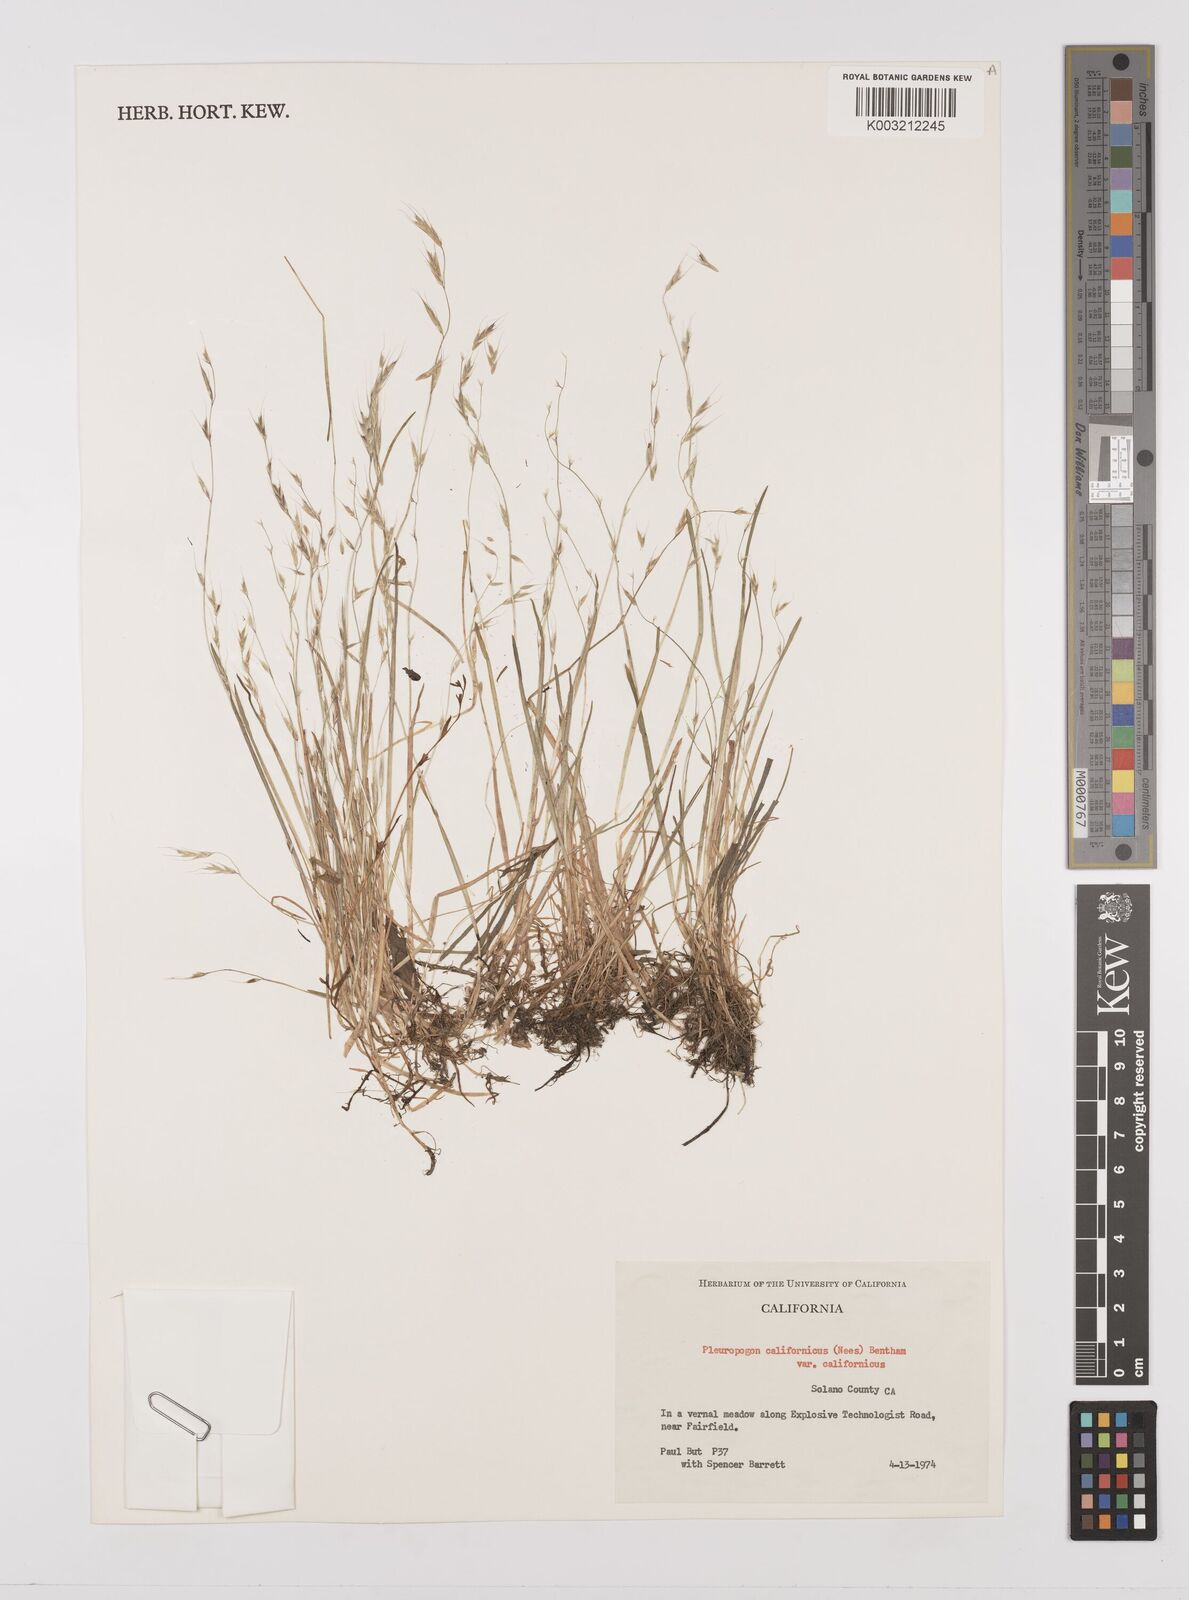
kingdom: Plantae
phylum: Tracheophyta
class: Liliopsida
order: Poales
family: Poaceae
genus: Pleuropogon
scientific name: Pleuropogon californicus
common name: California semaphore grass
